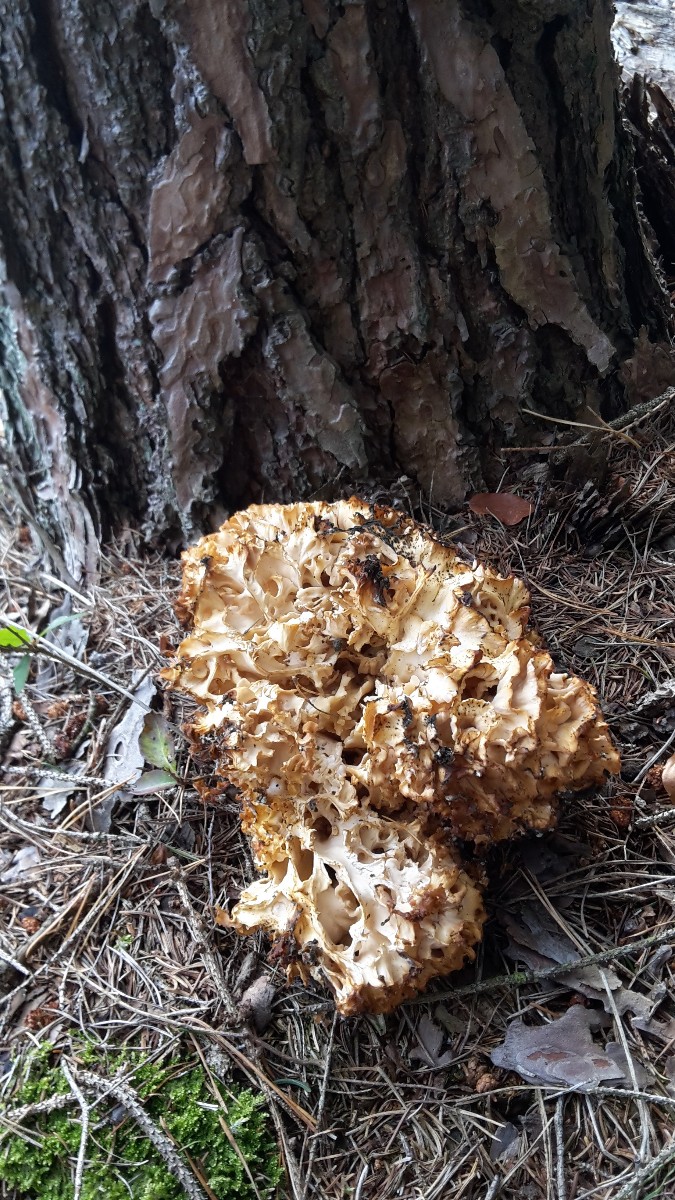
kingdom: Fungi
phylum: Basidiomycota
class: Agaricomycetes
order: Polyporales
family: Sparassidaceae
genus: Sparassis
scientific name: Sparassis crispa
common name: kruset blomkålssvamp
